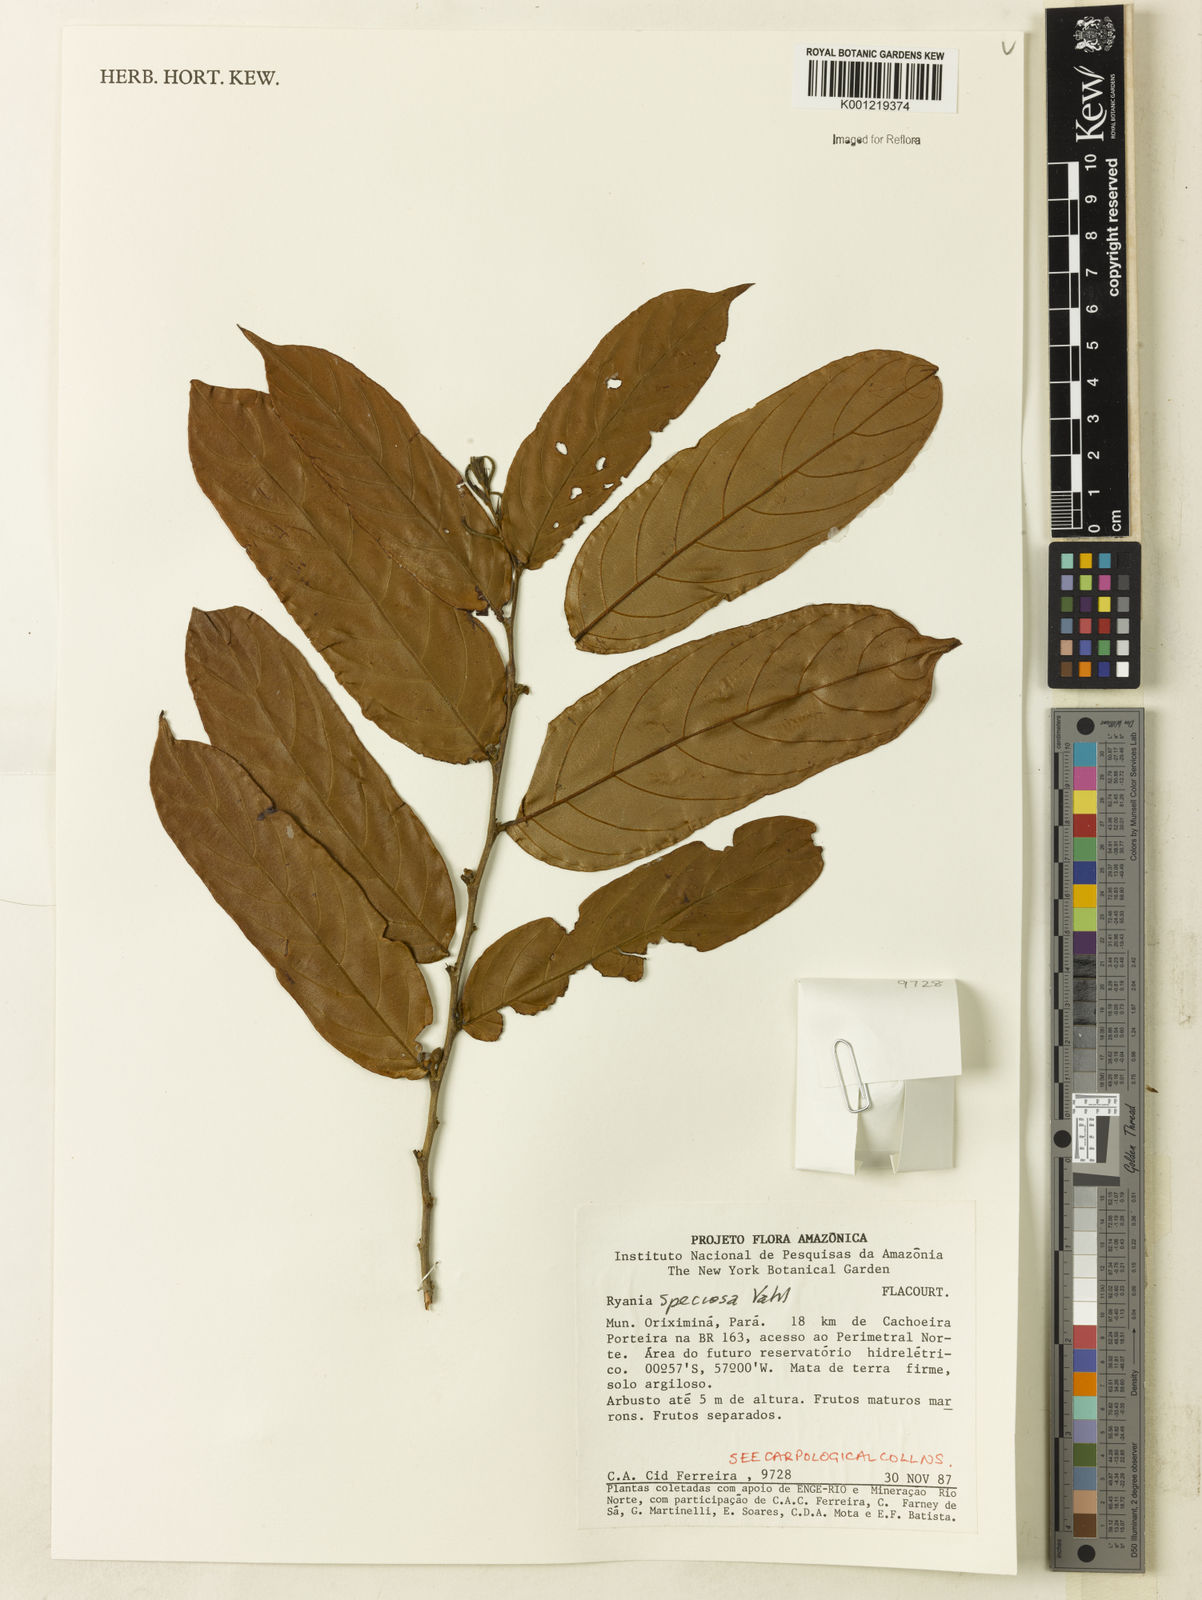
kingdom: Plantae
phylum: Tracheophyta
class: Magnoliopsida
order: Malpighiales
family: Salicaceae
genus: Ryania
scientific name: Ryania speciosa
